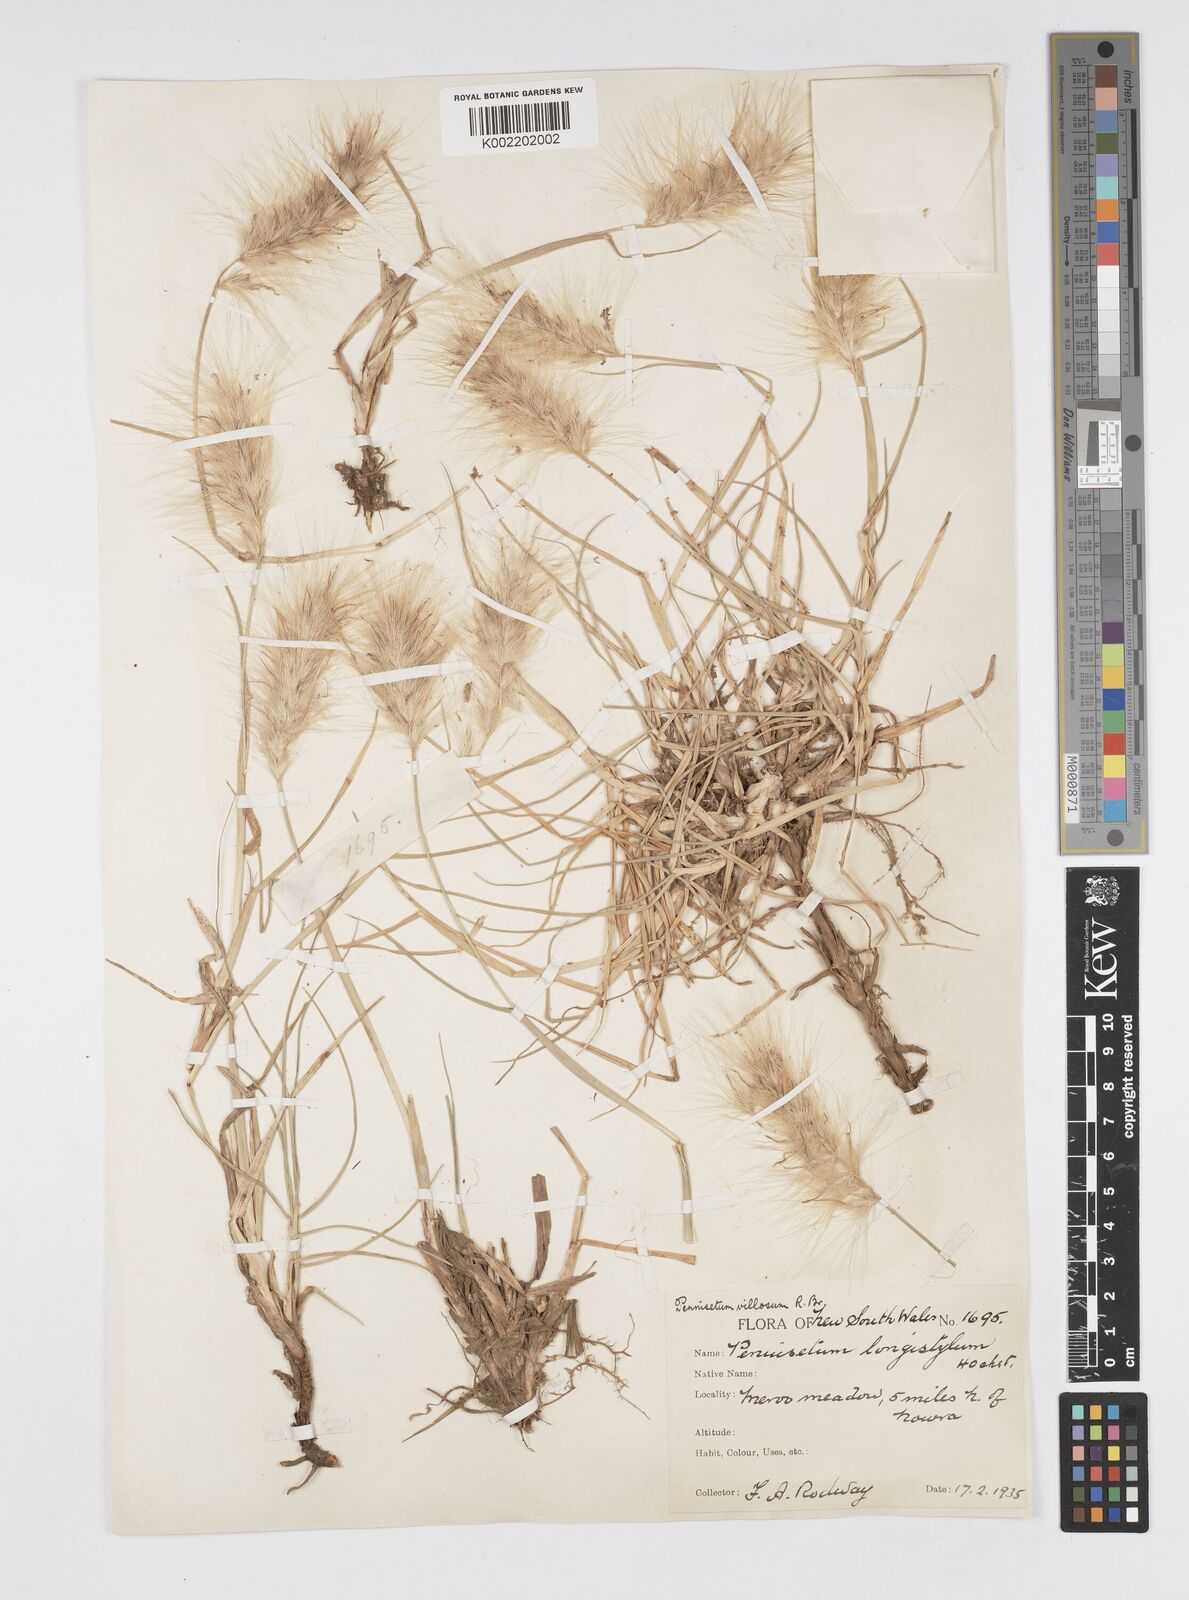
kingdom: Plantae
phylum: Tracheophyta
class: Liliopsida
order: Poales
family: Poaceae
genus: Cenchrus
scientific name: Cenchrus longisetus
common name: Feathertop
